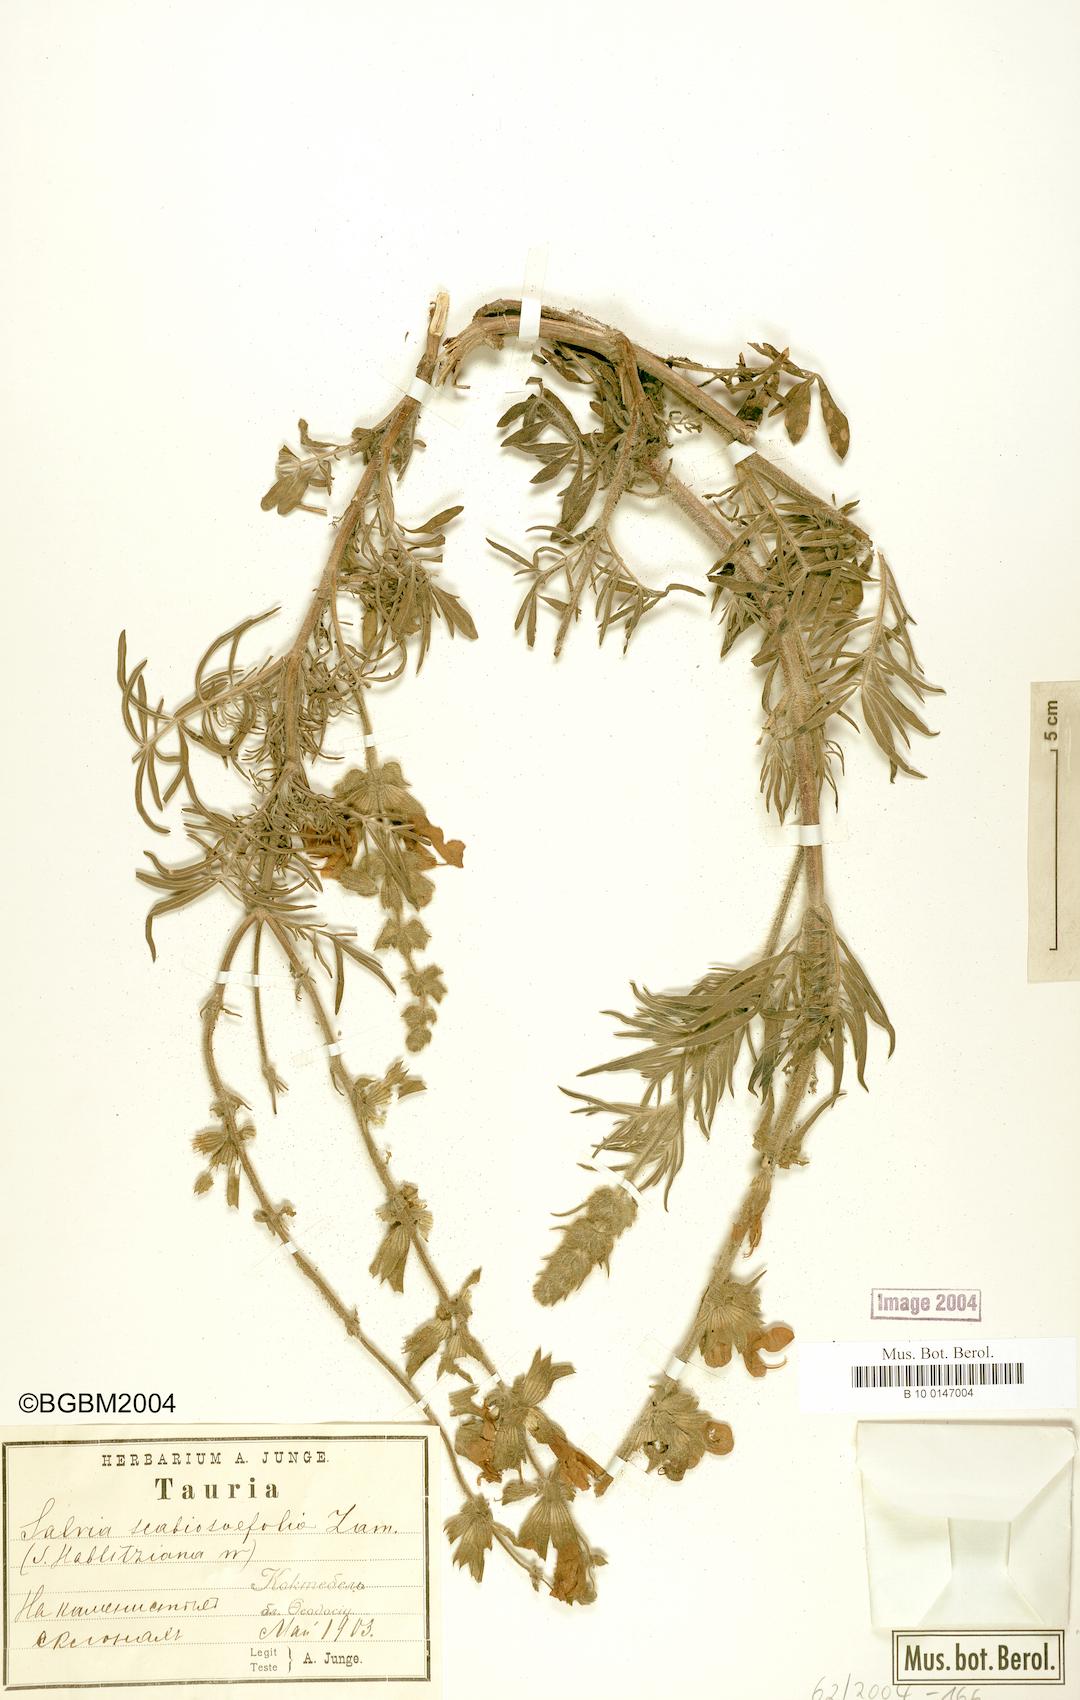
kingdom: Plantae
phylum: Tracheophyta
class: Magnoliopsida
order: Lamiales
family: Lamiaceae
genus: Salvia
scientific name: Salvia scabiosifolia
